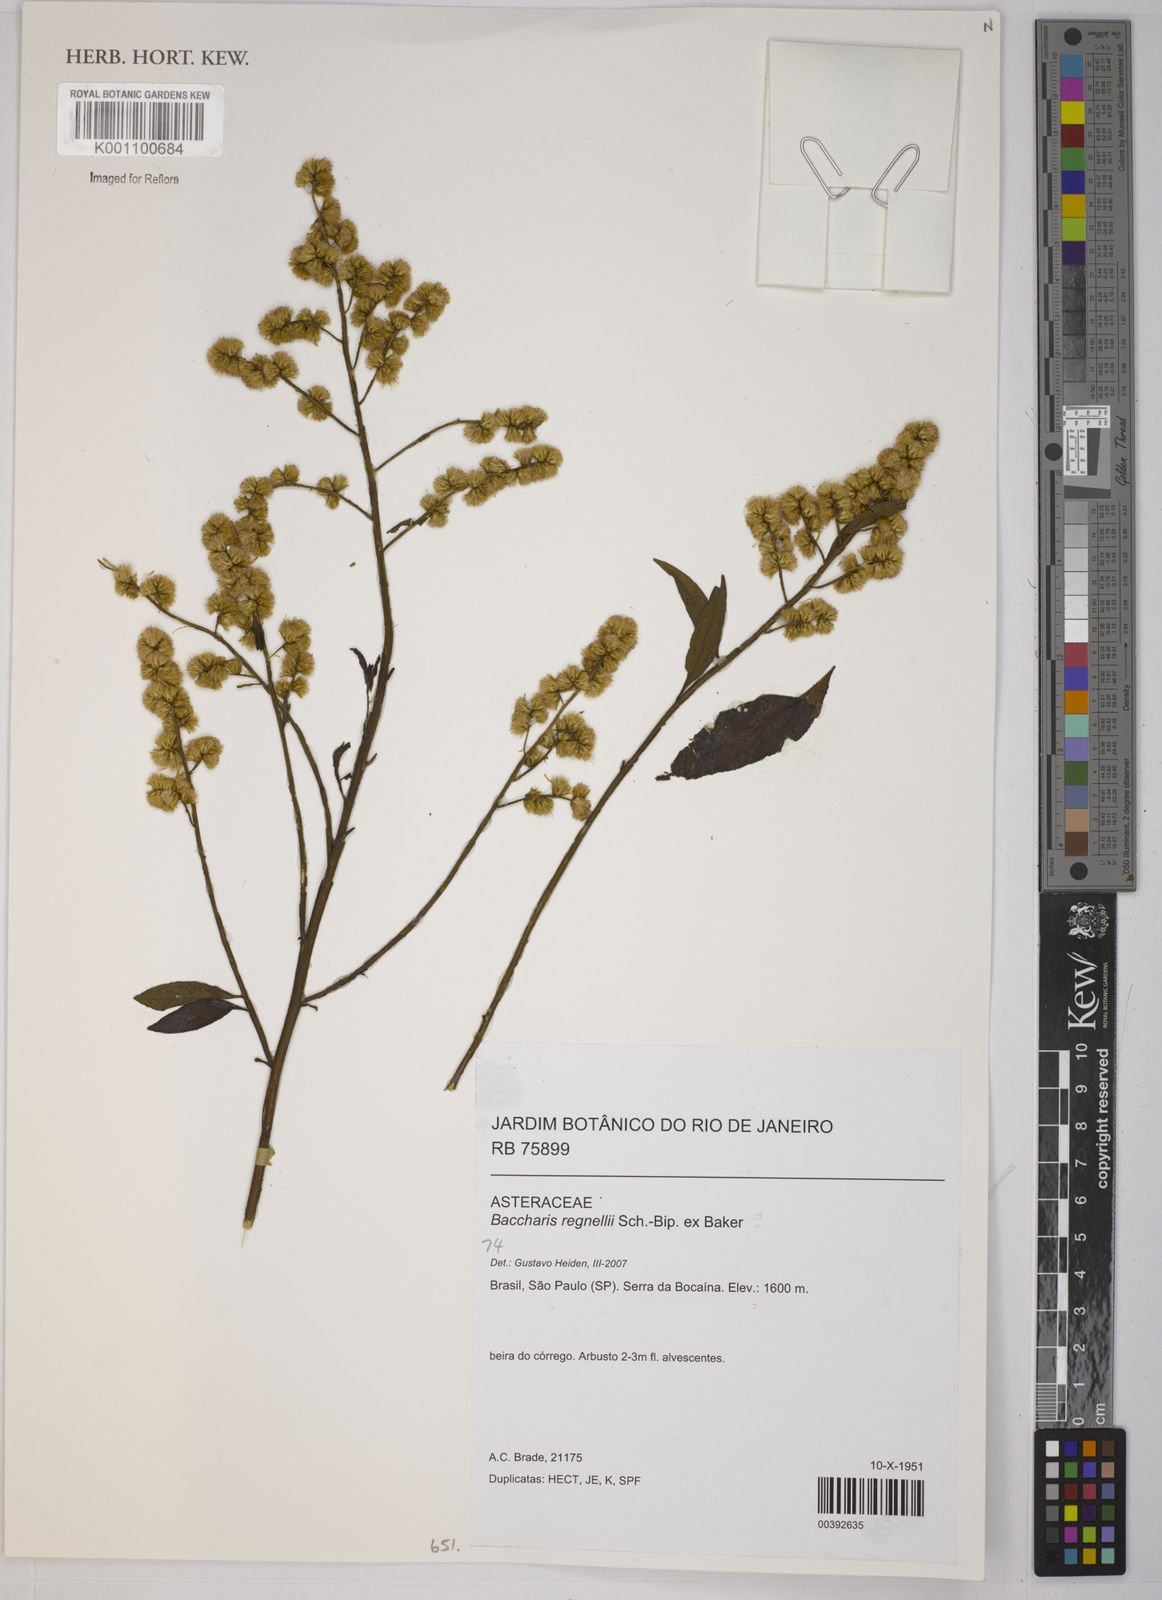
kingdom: Plantae
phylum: Tracheophyta
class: Magnoliopsida
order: Asterales
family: Asteraceae
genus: Baccharis
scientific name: Baccharis
